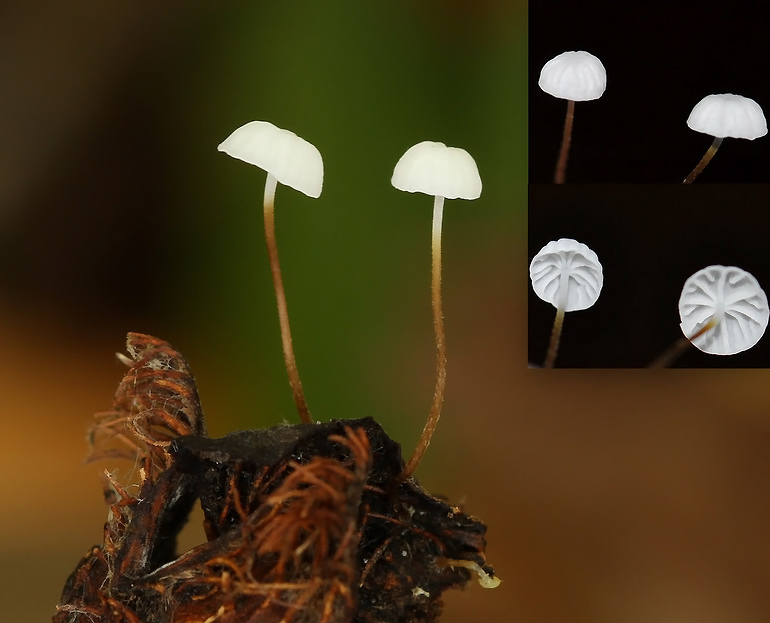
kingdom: Fungi
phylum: Basidiomycota
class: Agaricomycetes
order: Agaricales
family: Physalacriaceae
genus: Rhizomarasmius
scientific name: Rhizomarasmius setosus
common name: bøgeblads-bruskhat
